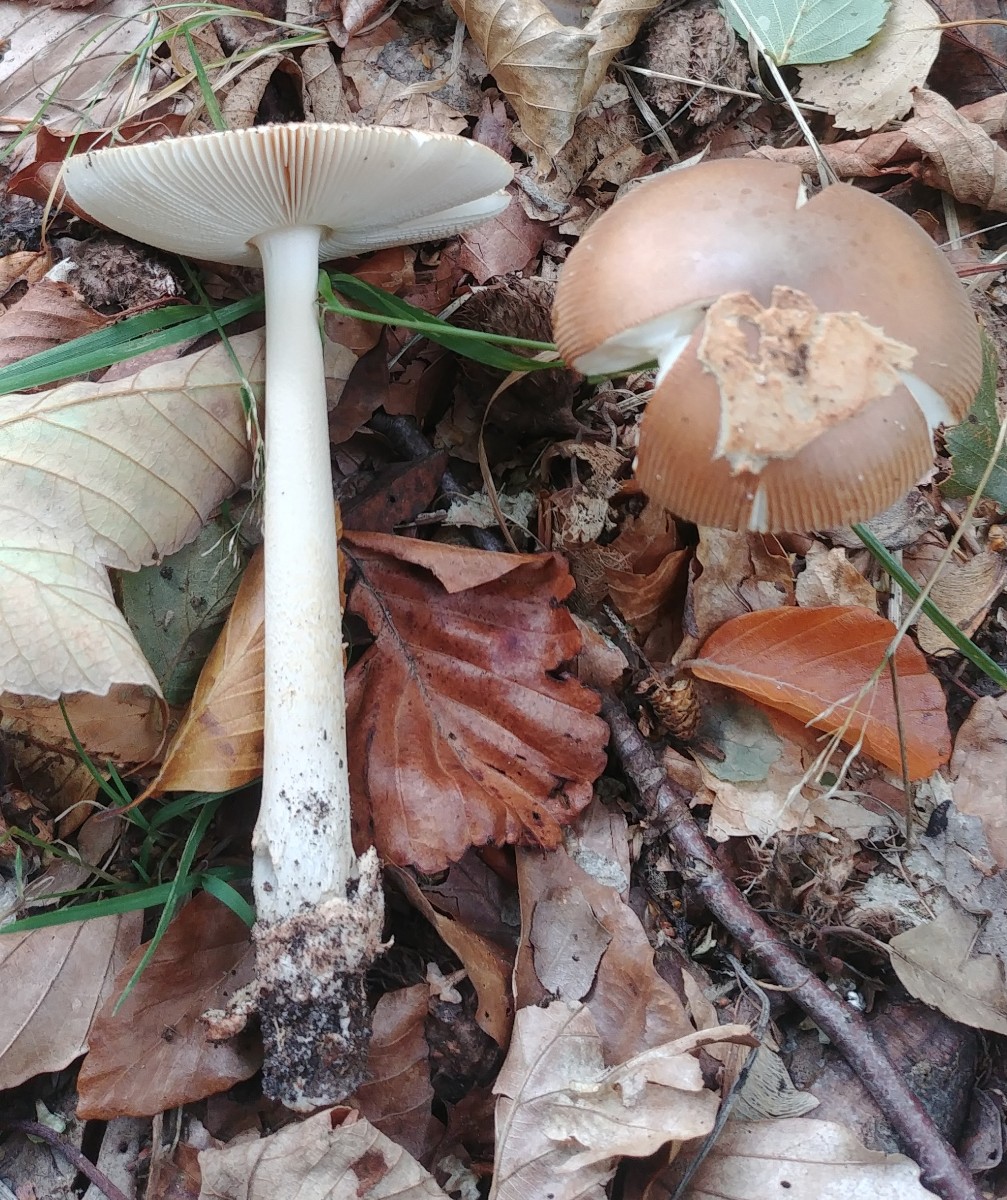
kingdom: Fungi
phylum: Basidiomycota
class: Agaricomycetes
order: Agaricales
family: Amanitaceae
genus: Amanita
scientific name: Amanita fulva
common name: brun kam-fluesvamp
